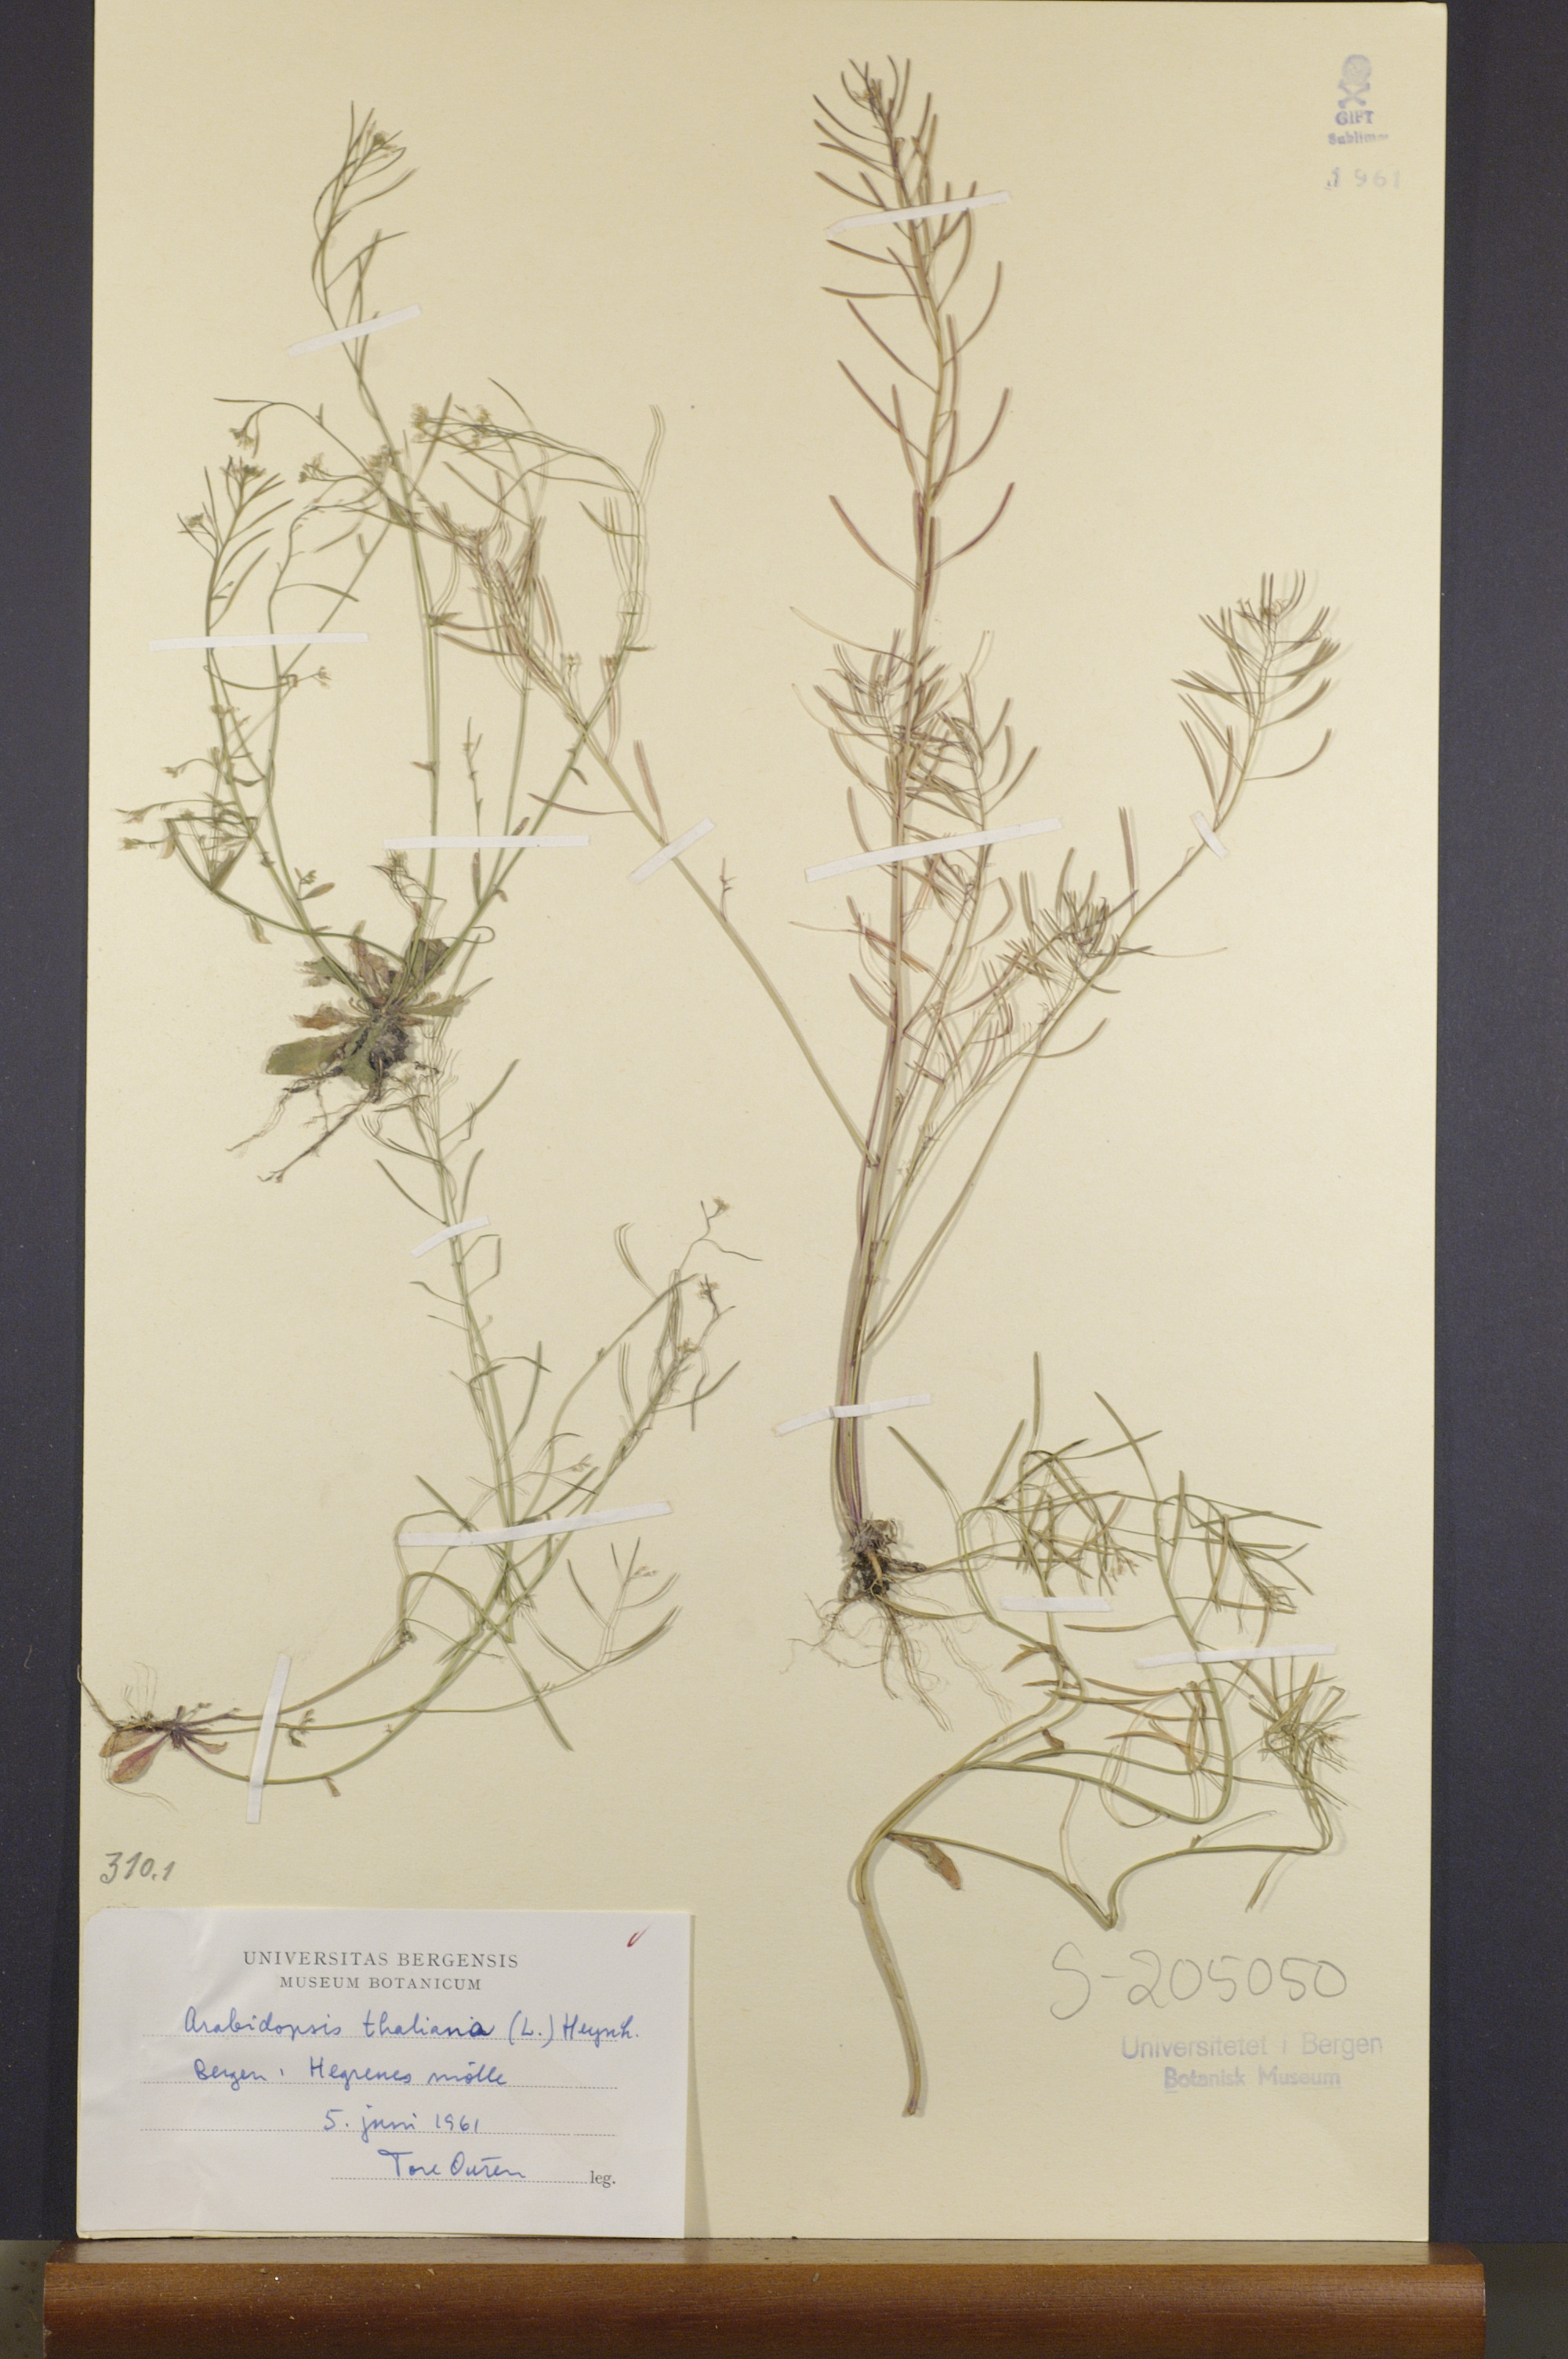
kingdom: Plantae
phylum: Tracheophyta
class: Magnoliopsida
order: Brassicales
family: Brassicaceae
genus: Arabidopsis
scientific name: Arabidopsis thaliana
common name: Thale cress
